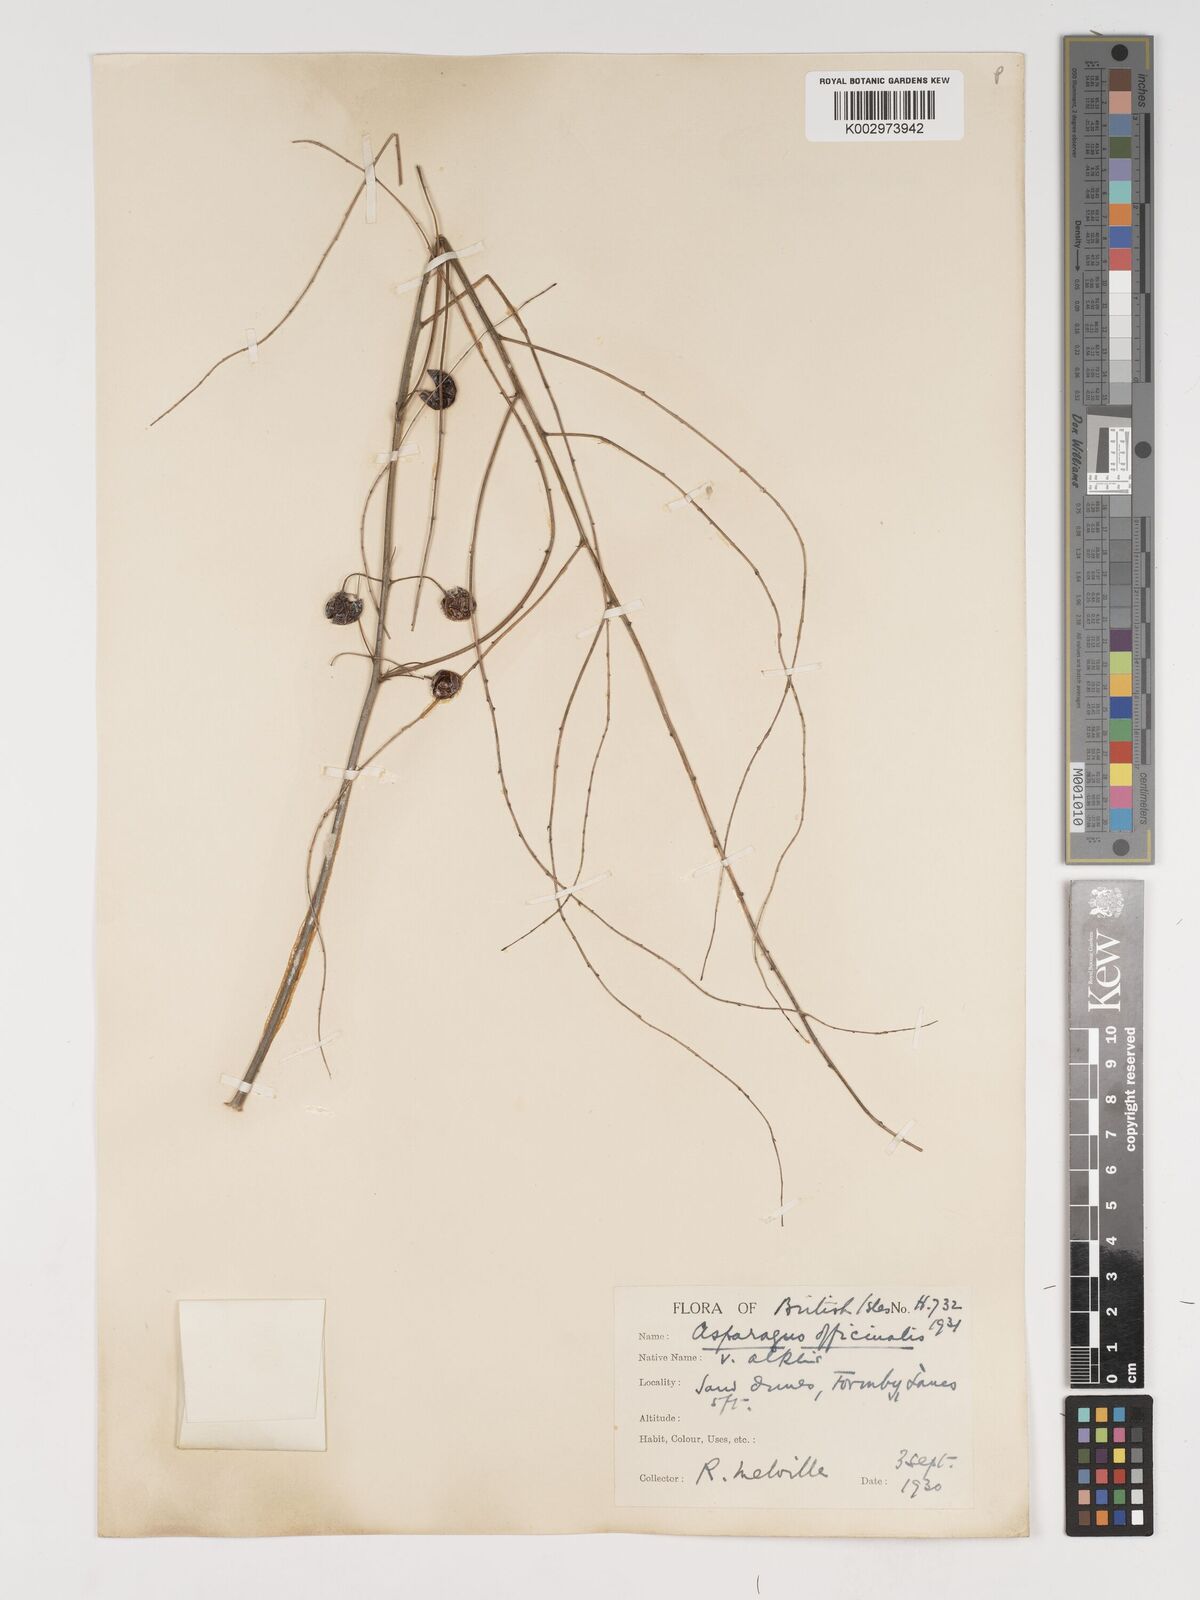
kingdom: Plantae
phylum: Tracheophyta
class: Liliopsida
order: Asparagales
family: Asparagaceae
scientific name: Asparagaceae
